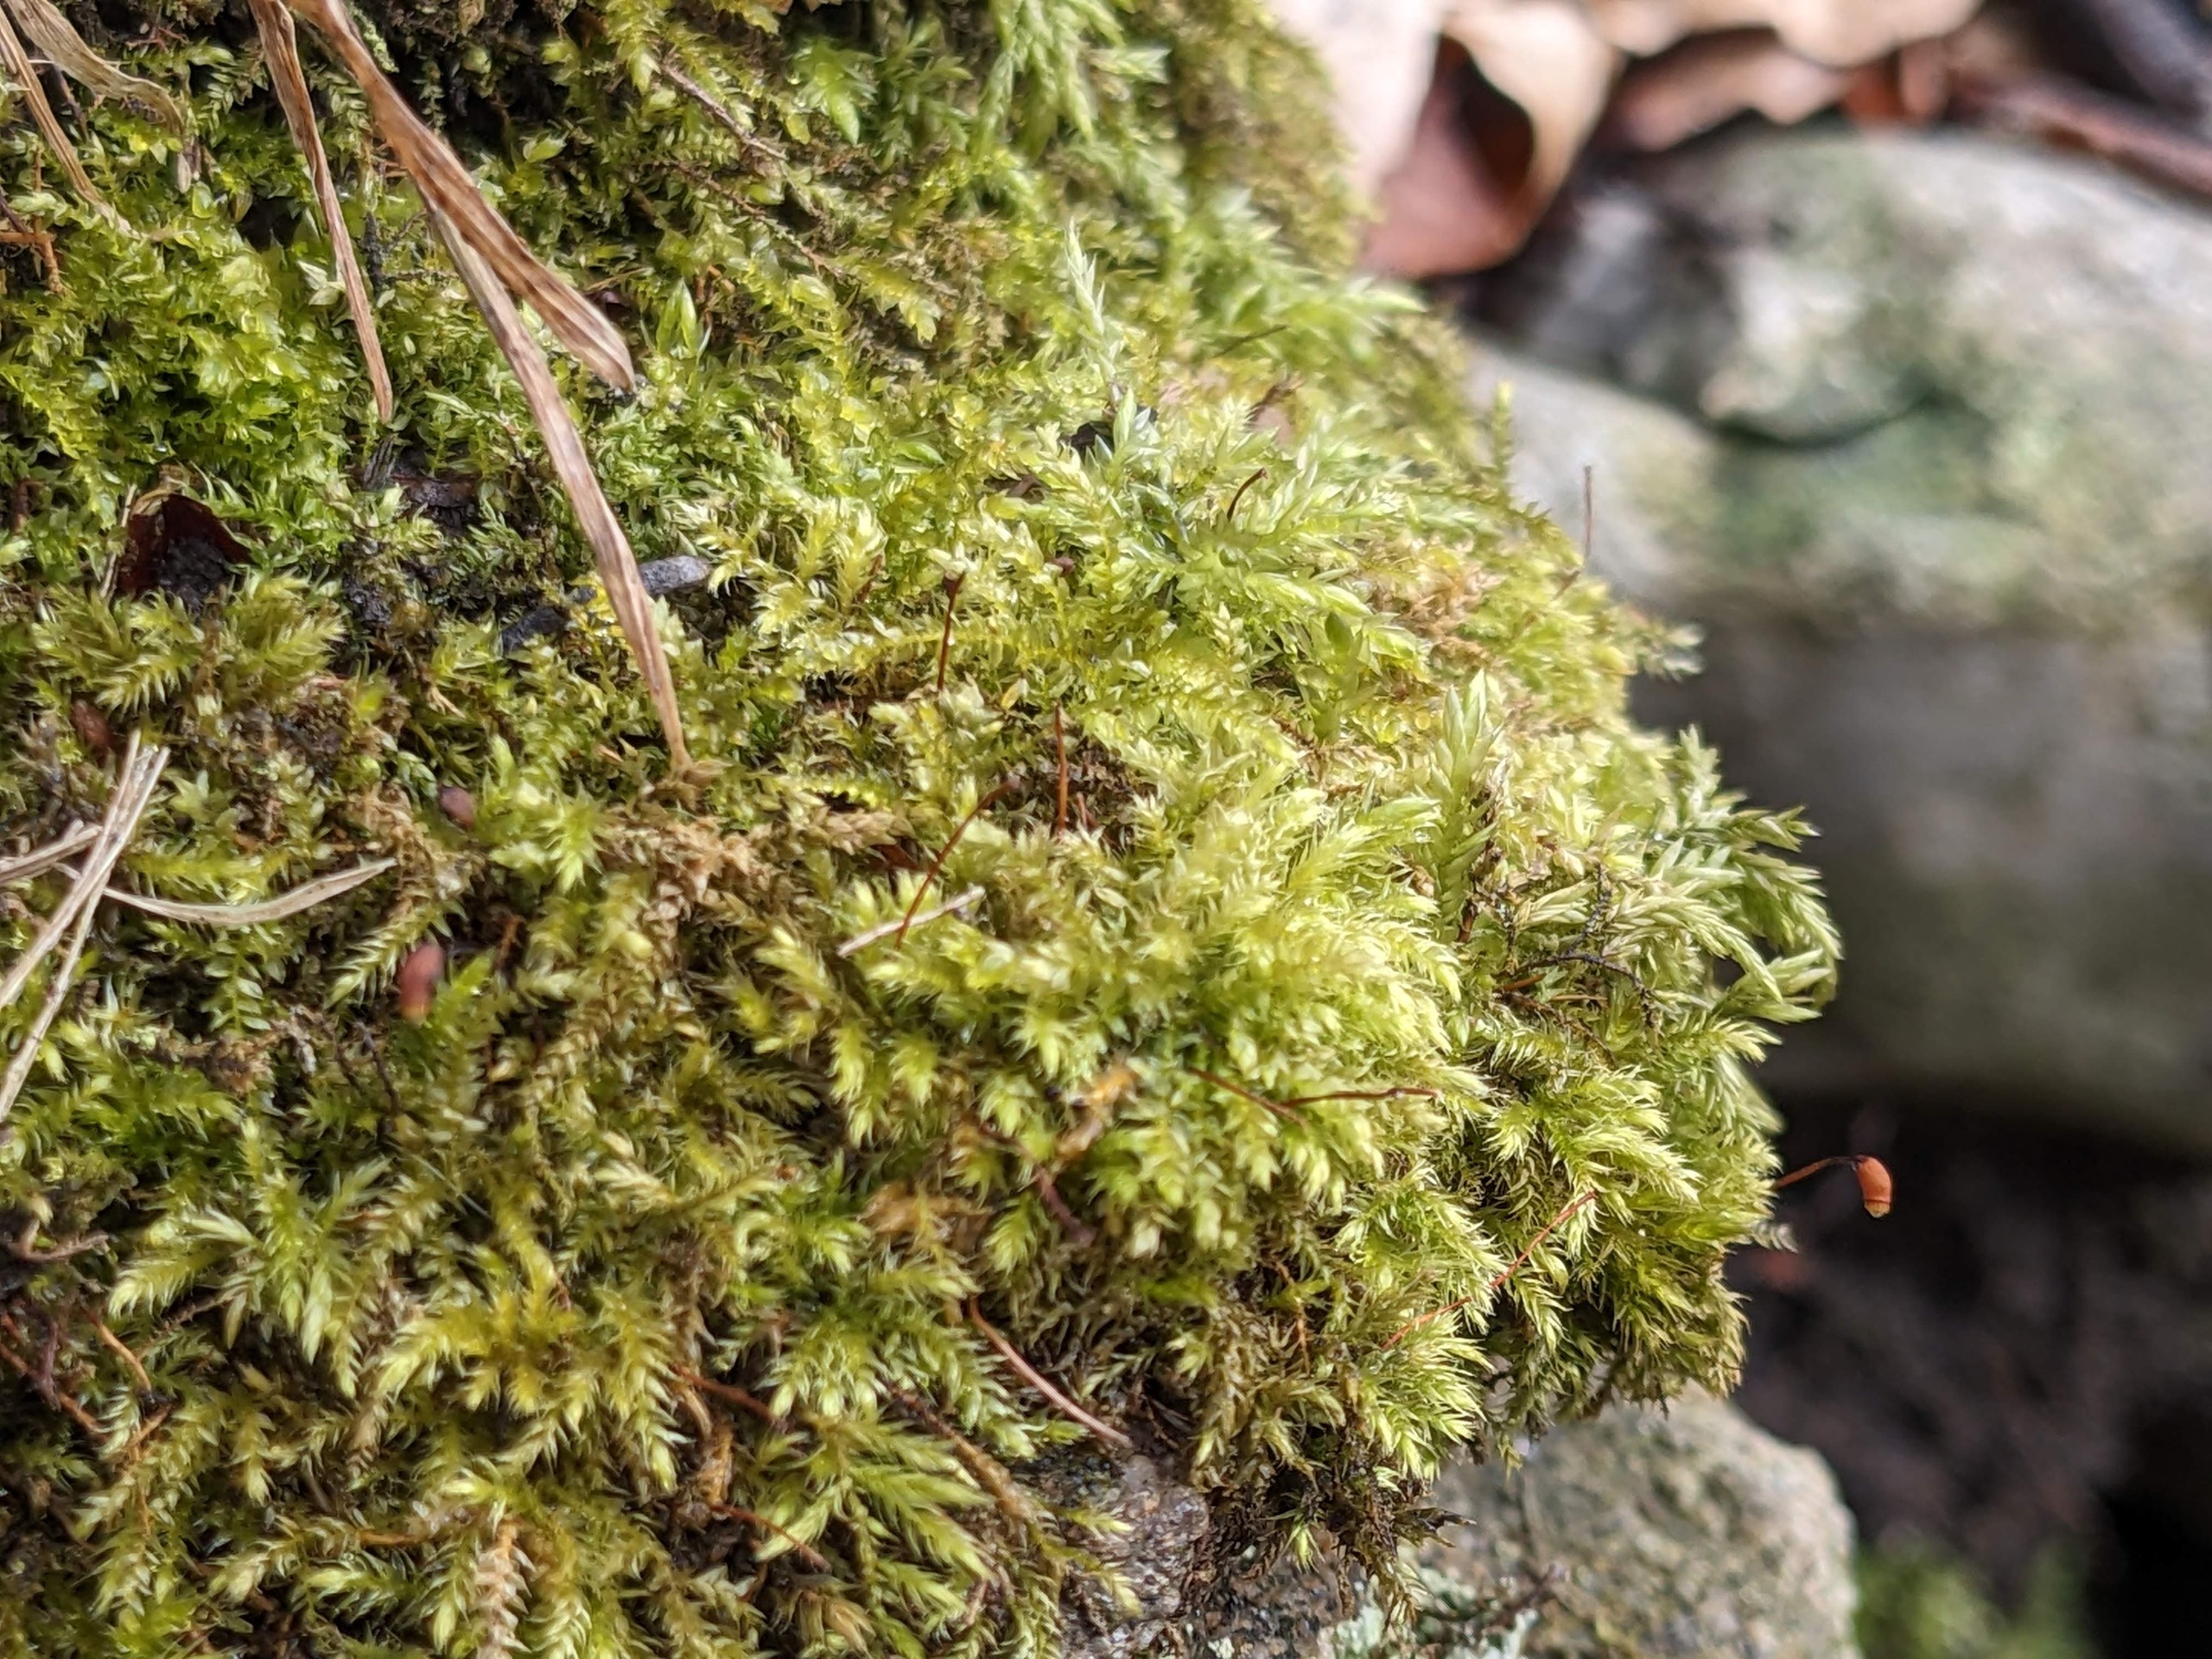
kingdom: Plantae
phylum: Bryophyta
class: Bryopsida
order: Hypnales
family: Brachytheciaceae
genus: Brachytheciastrum
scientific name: Brachytheciastrum velutinum
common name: Fløjls-kortkapsel
